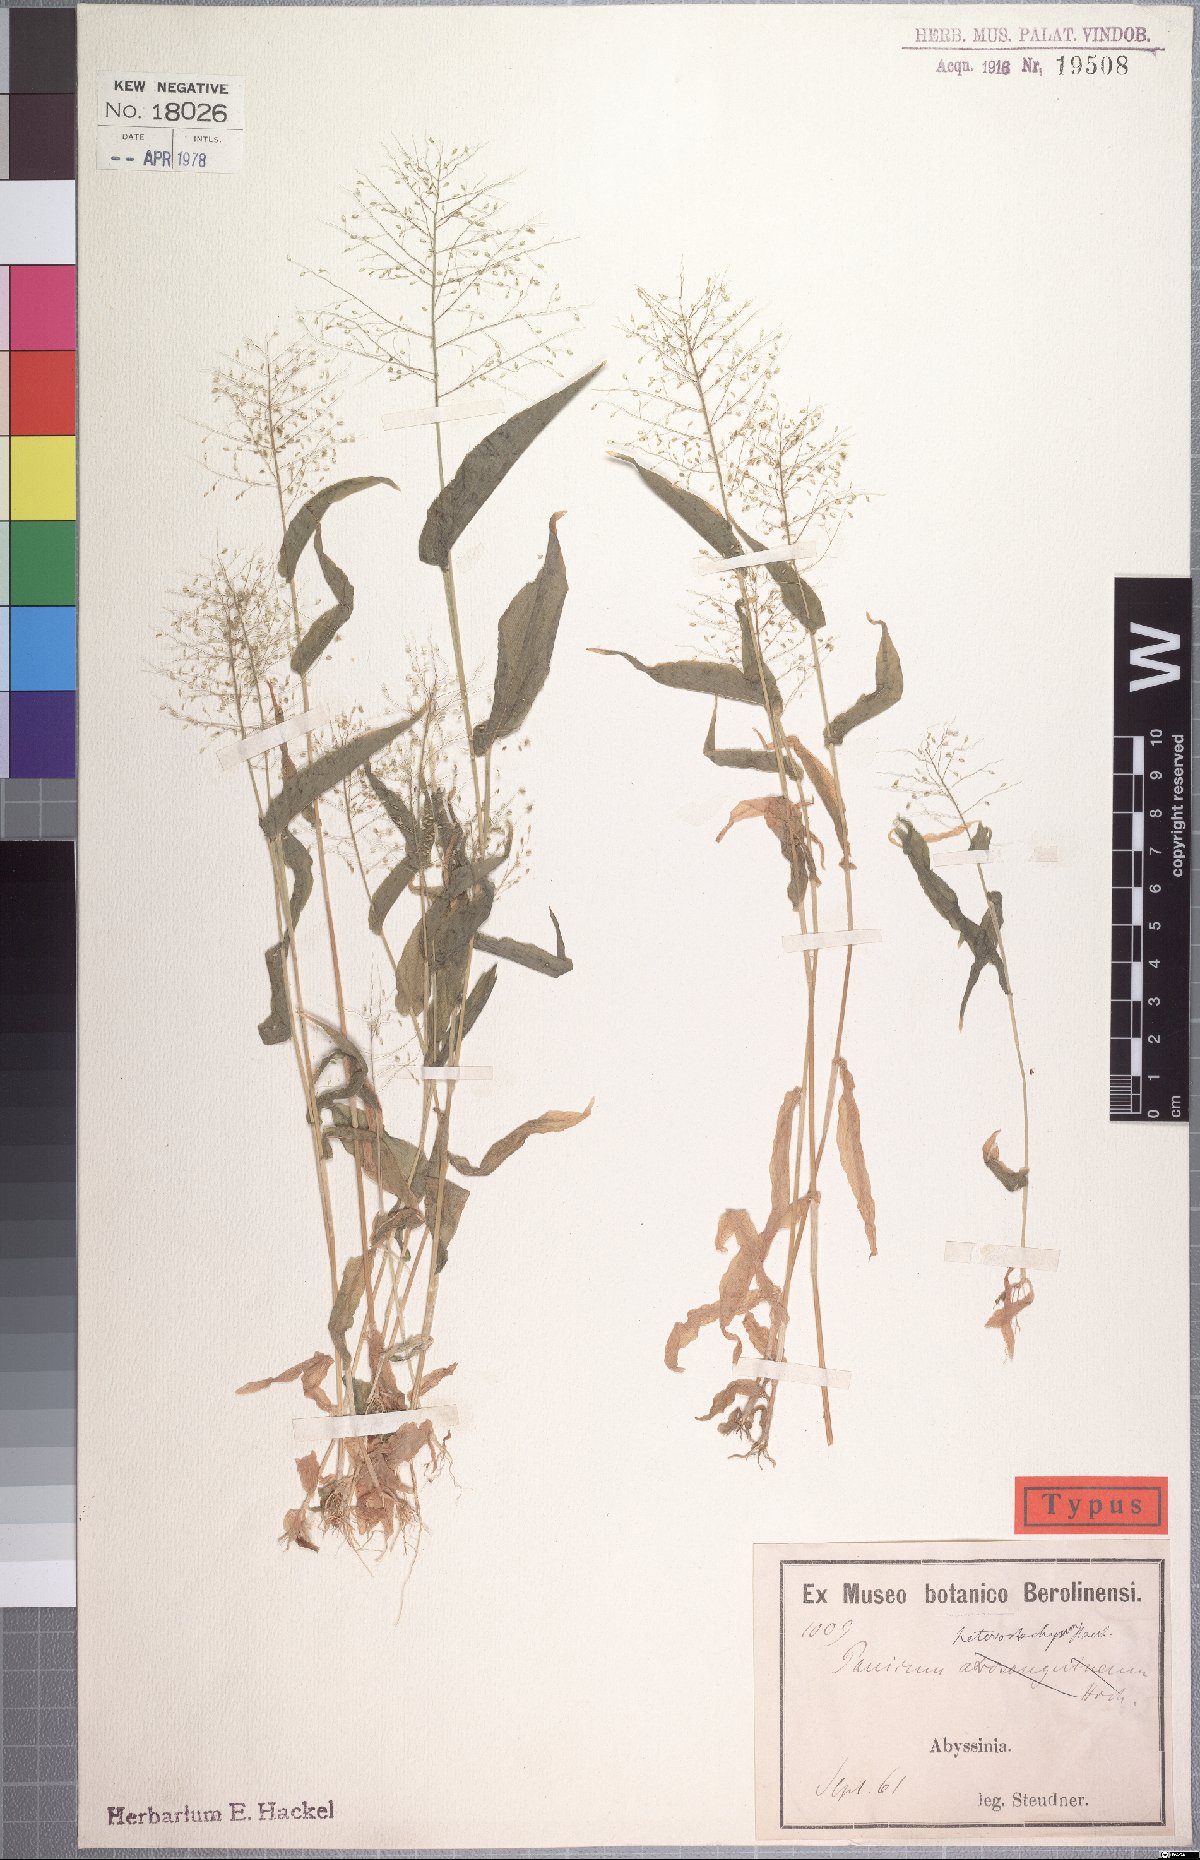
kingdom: Plantae
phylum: Tracheophyta
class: Liliopsida
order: Poales
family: Poaceae
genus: Panicum
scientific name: Panicum hirtum
